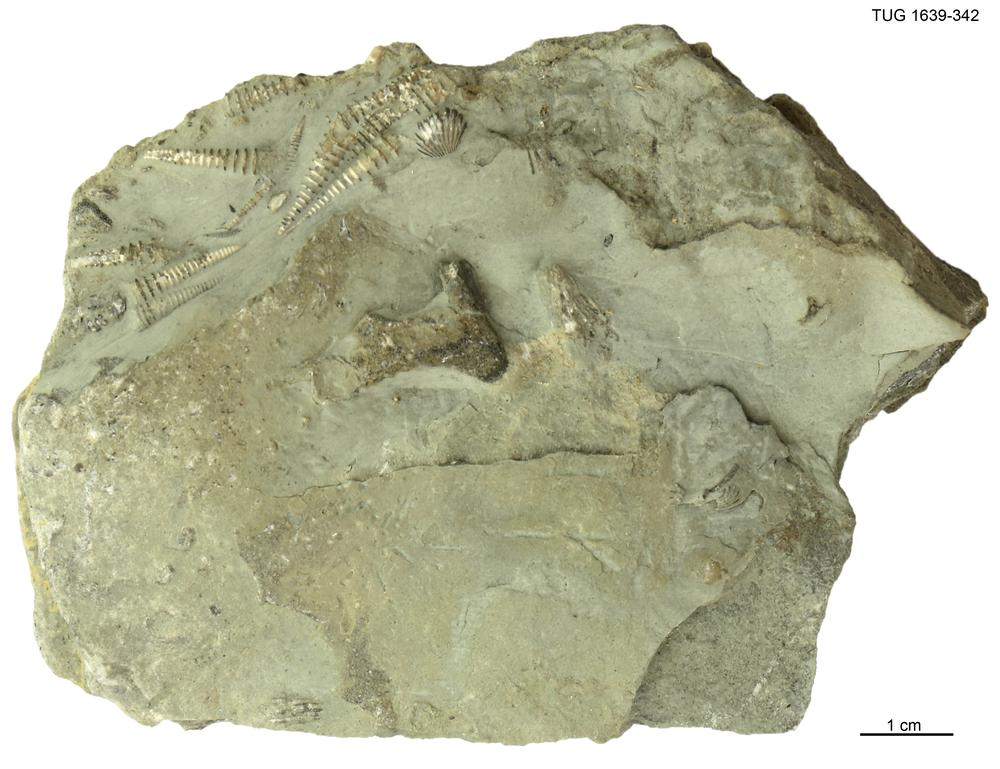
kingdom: Animalia
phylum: Mollusca
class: Cricoconarida
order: Tentaculitida
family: Tentaculitidae
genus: Tentaculites
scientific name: Tentaculites
